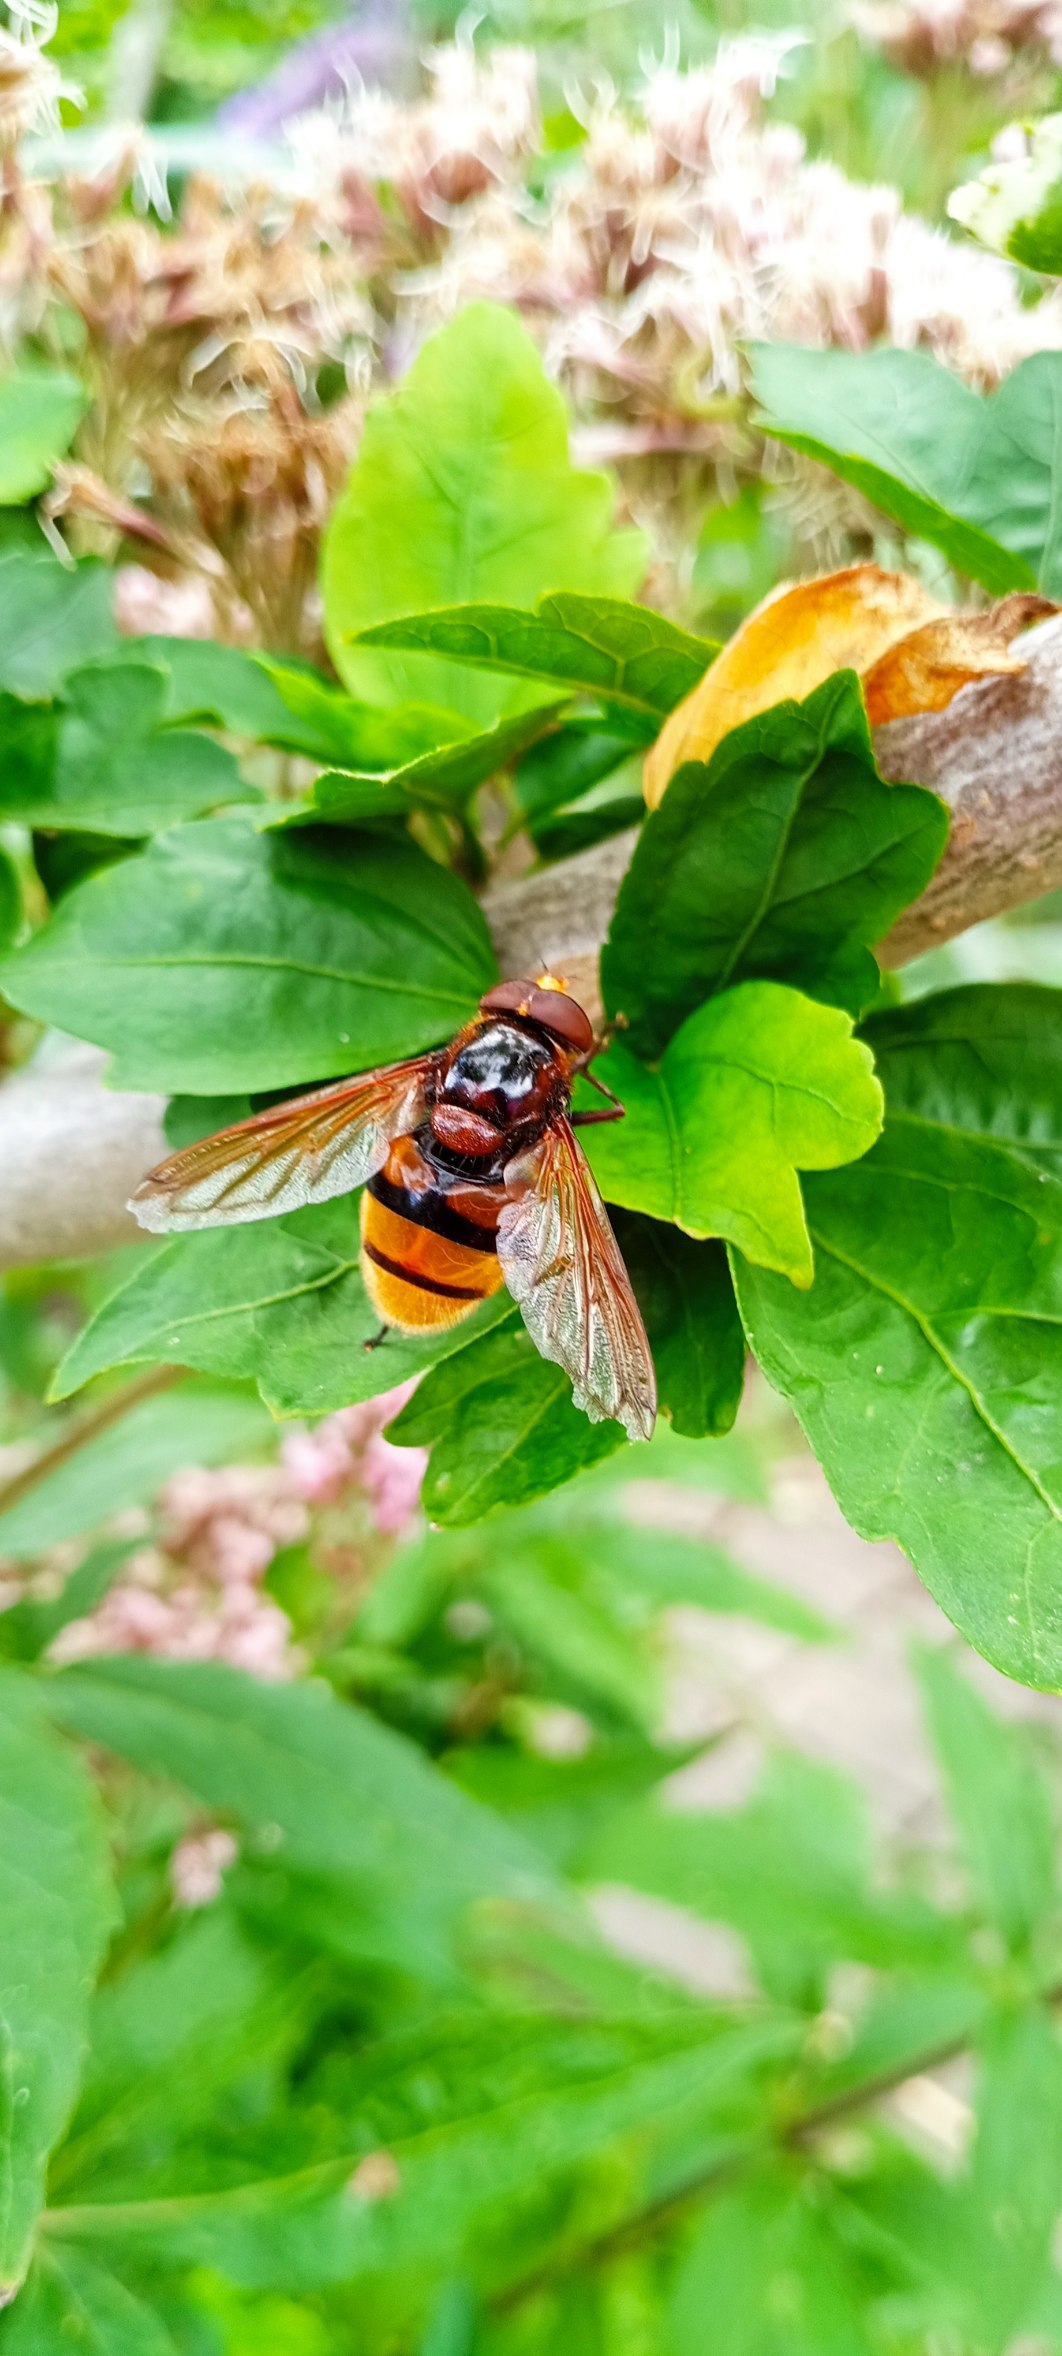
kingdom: Animalia
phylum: Arthropoda
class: Insecta
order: Diptera
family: Syrphidae
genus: Volucella
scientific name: Volucella zonaria
